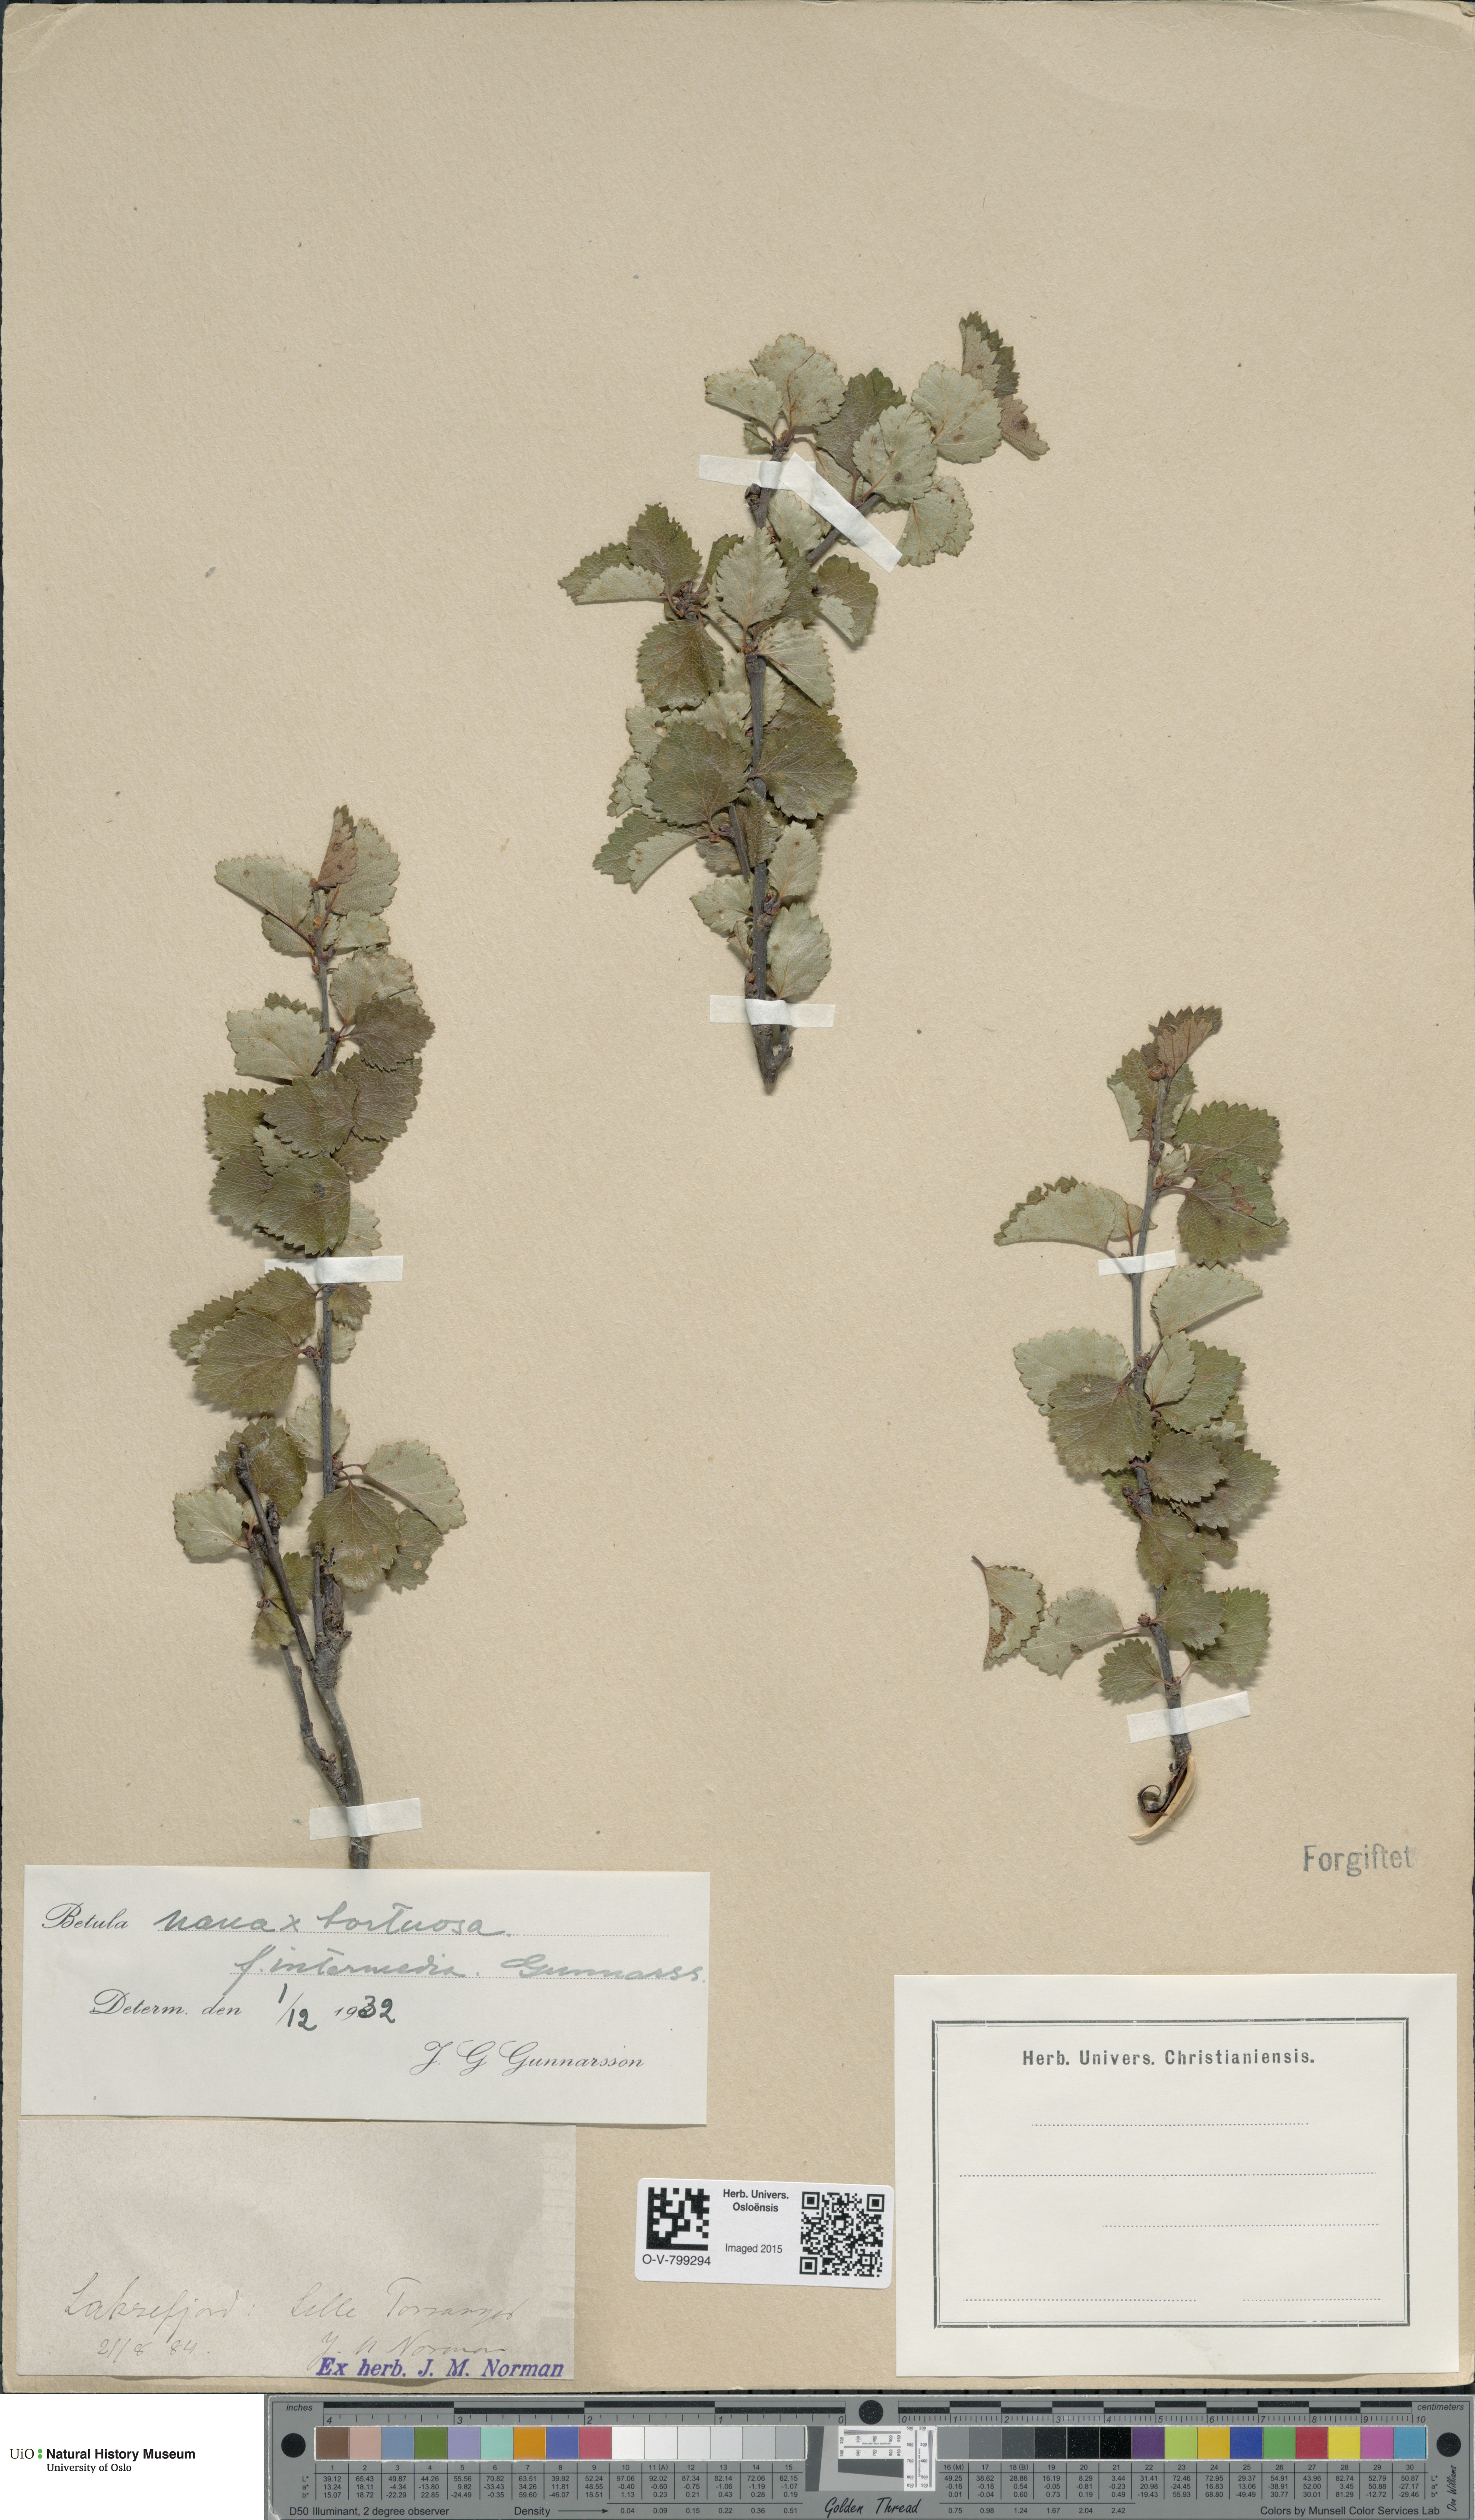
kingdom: Plantae
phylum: Tracheophyta
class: Magnoliopsida
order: Fagales
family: Betulaceae
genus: Betula
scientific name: Betula nana
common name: Arctic dwarf birch
